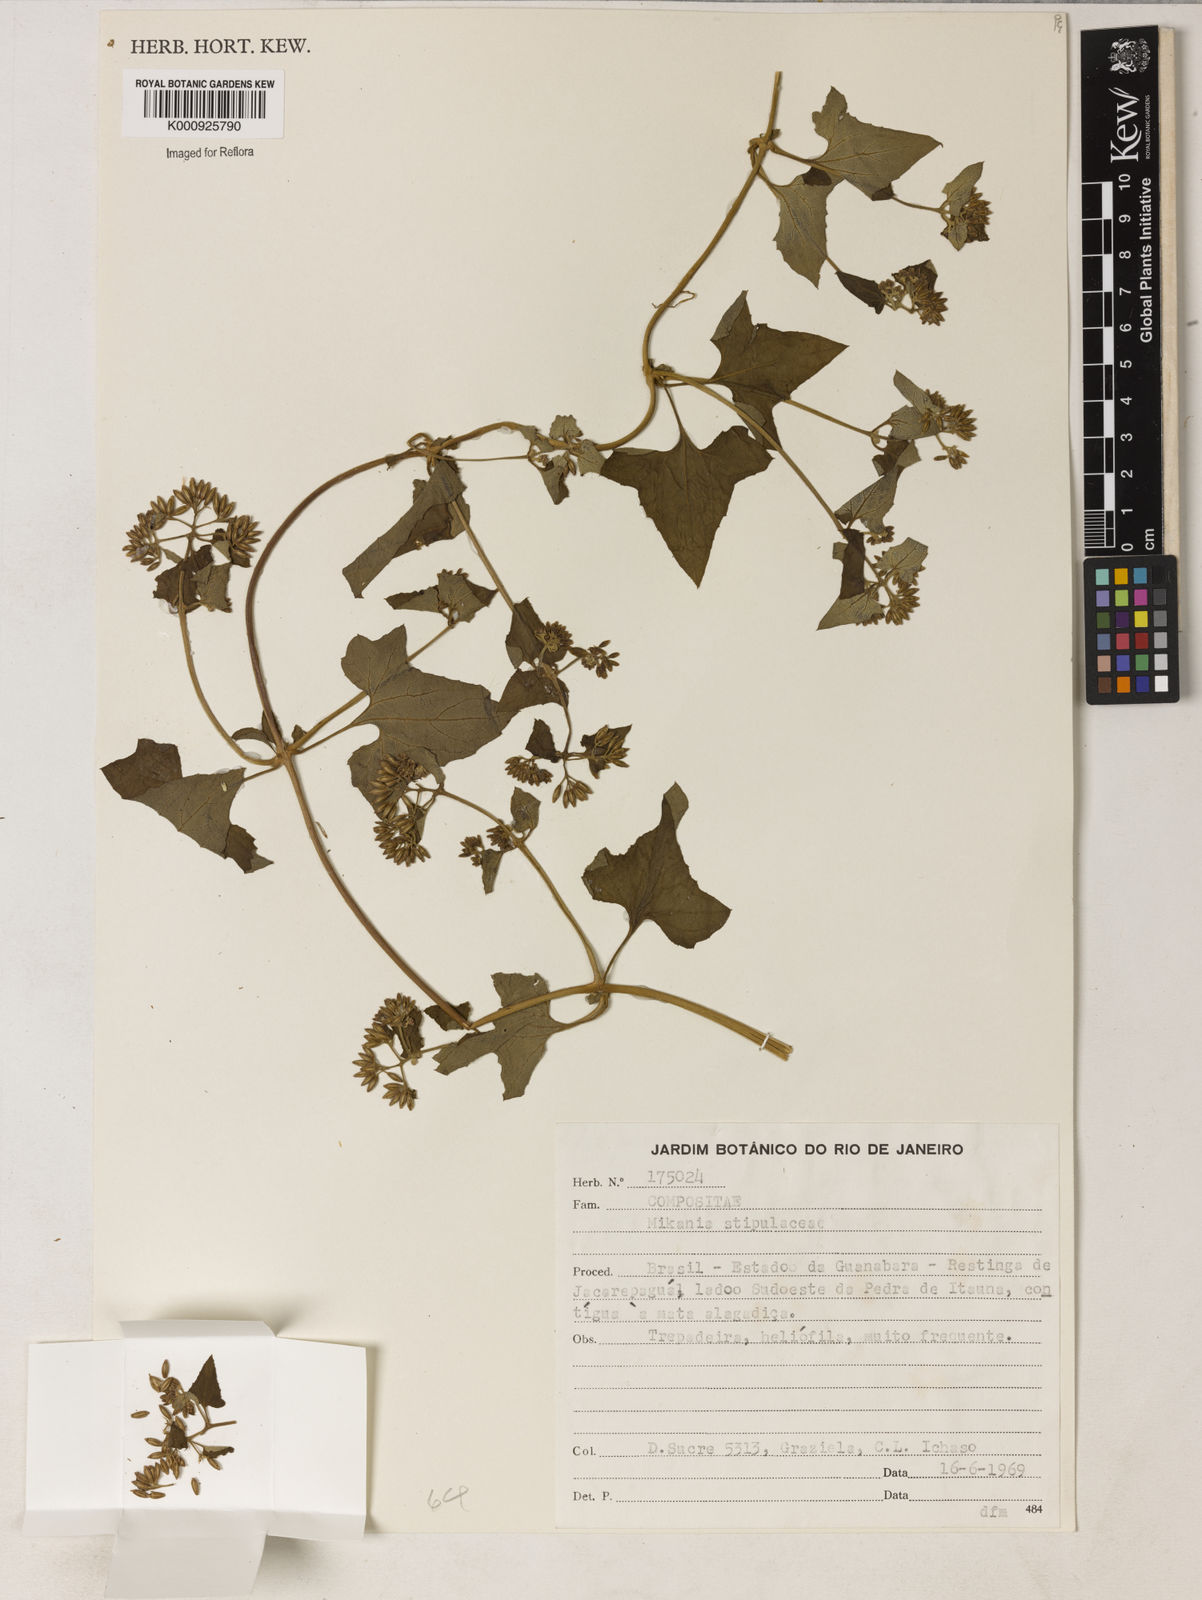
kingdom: Plantae
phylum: Tracheophyta
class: Magnoliopsida
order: Asterales
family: Asteraceae
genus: Mikania
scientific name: Mikania stipulacea
